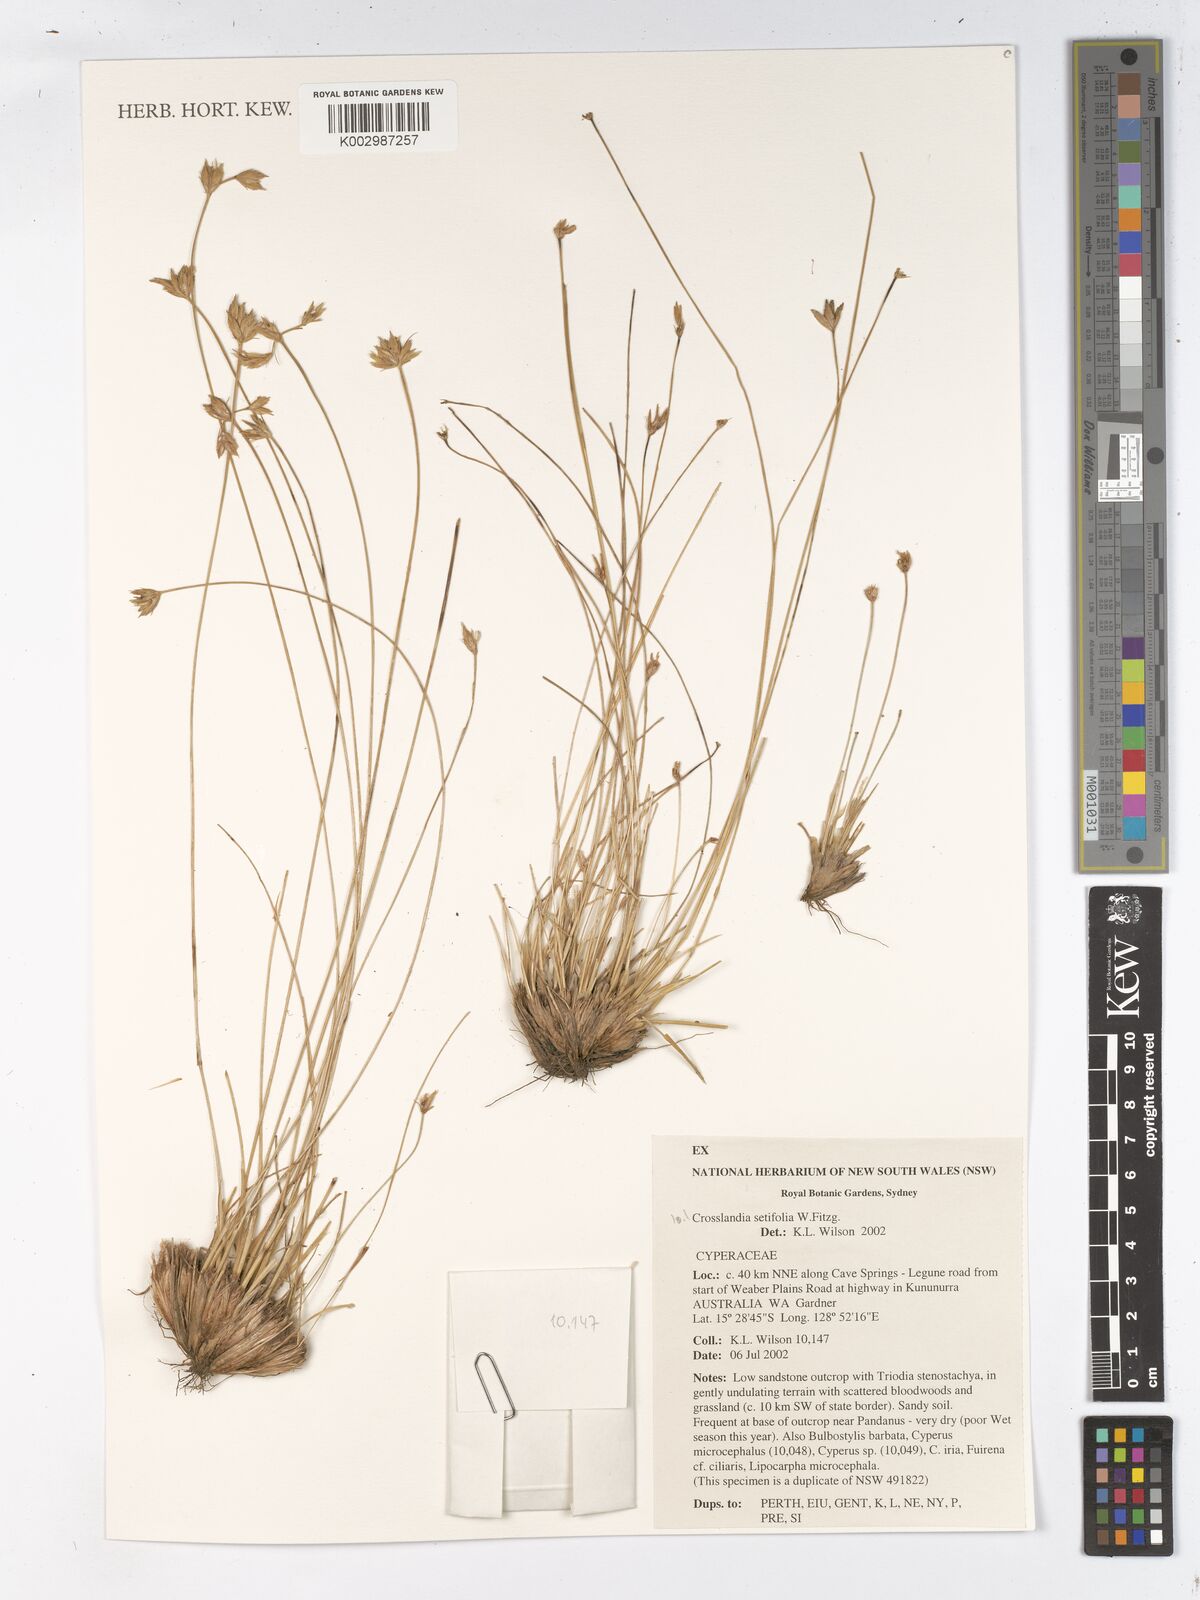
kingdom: Plantae
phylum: Tracheophyta
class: Liliopsida
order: Poales
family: Cyperaceae
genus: Fimbristylis
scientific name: Fimbristylis crosslandii
